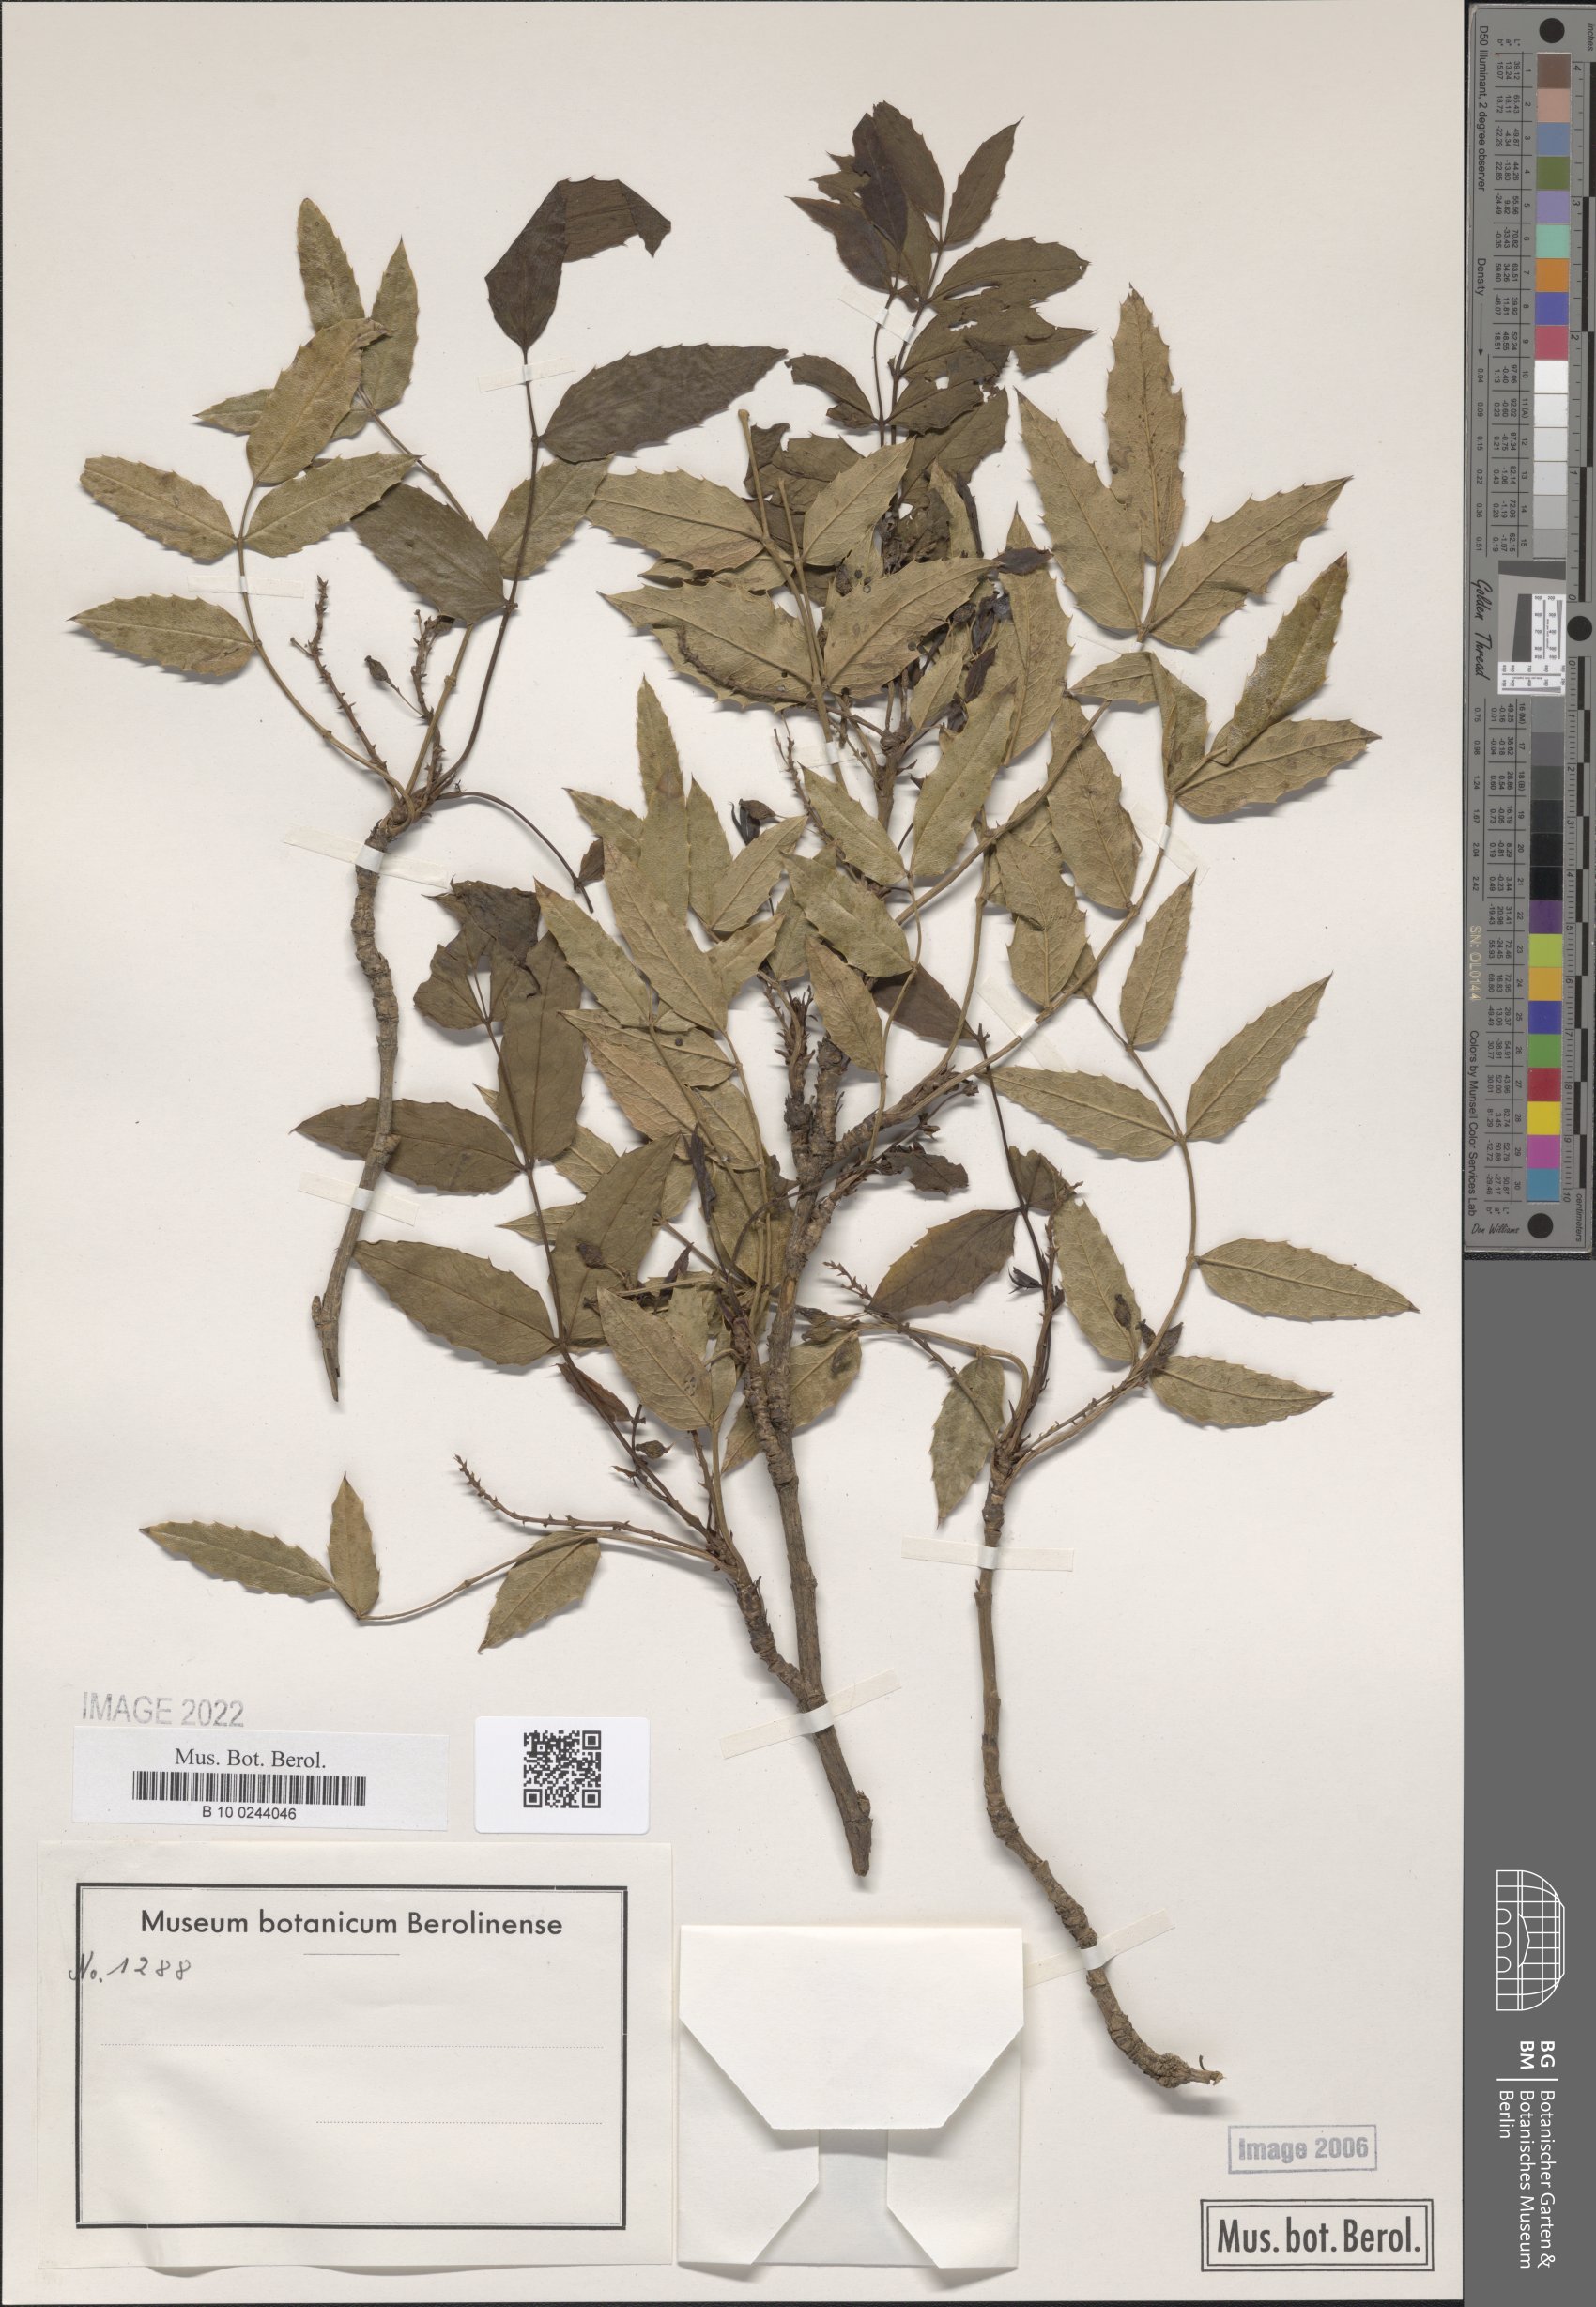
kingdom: Plantae
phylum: Tracheophyta
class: Magnoliopsida
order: Ranunculales
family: Berberidaceae
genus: Mahonia
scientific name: Mahonia incerta
